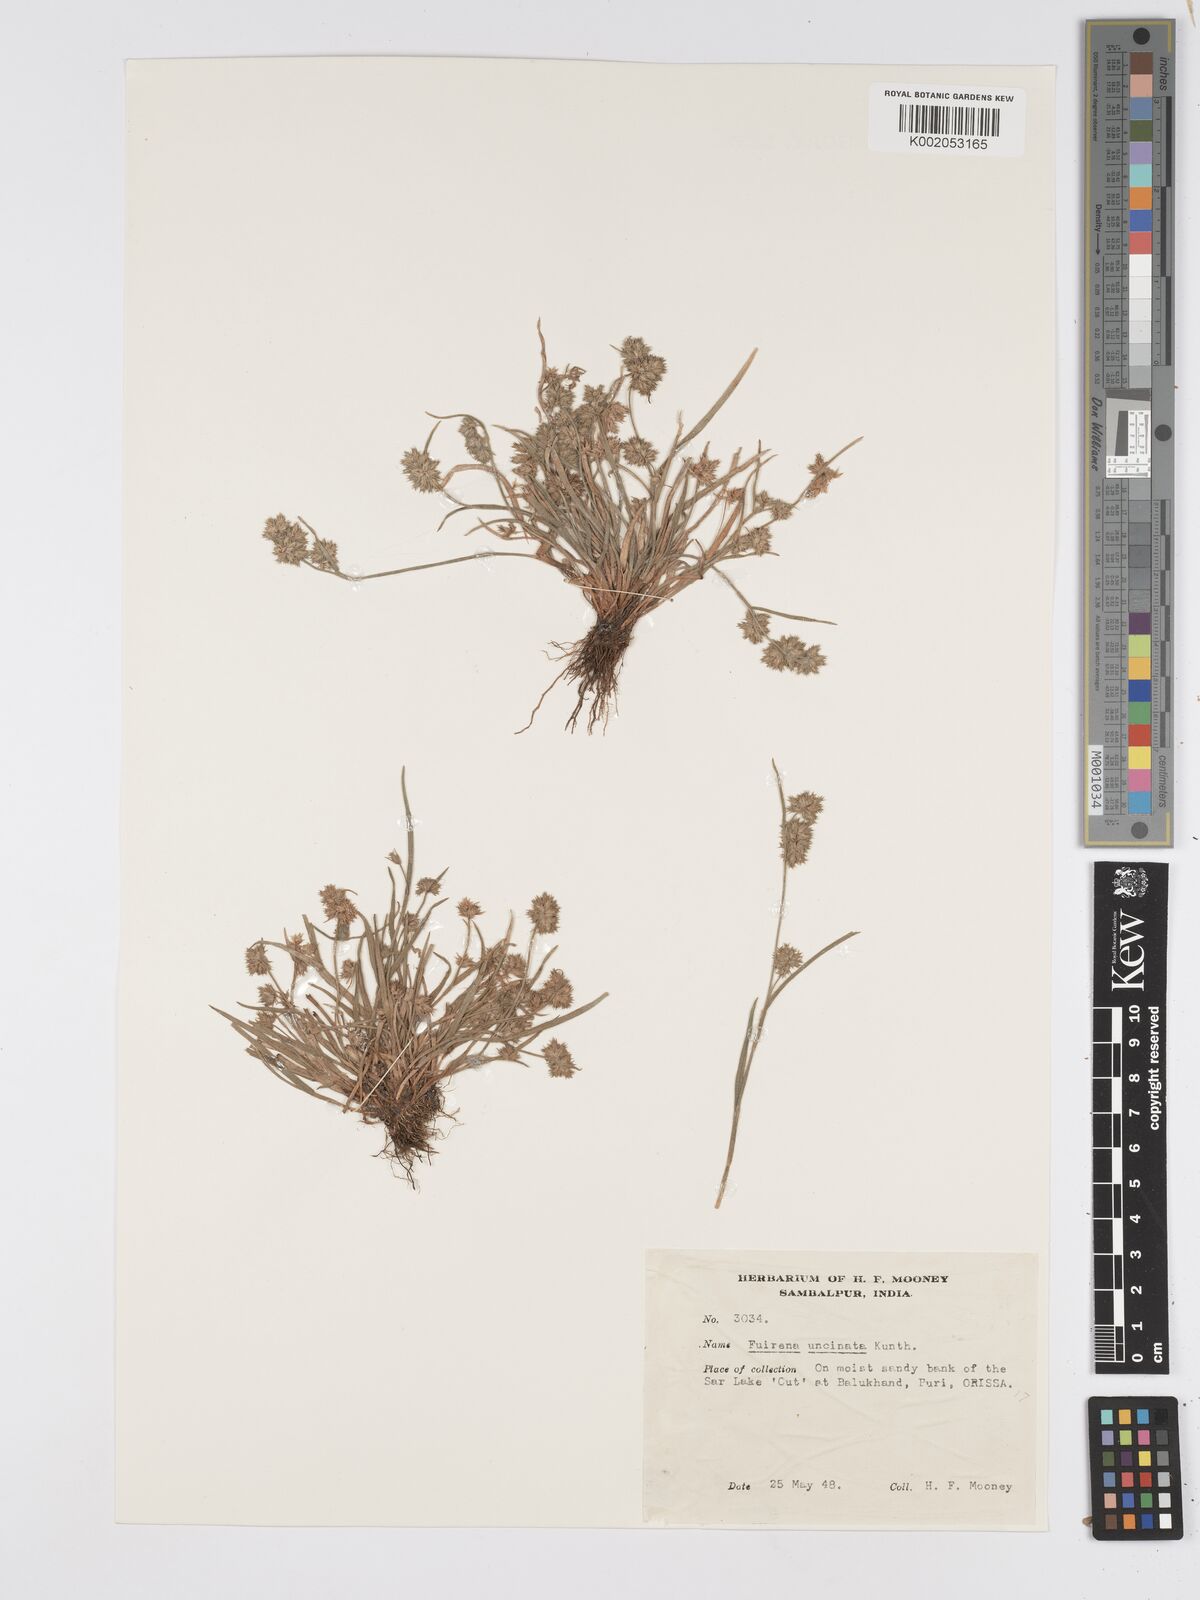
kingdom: Plantae
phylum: Tracheophyta
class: Liliopsida
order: Poales
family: Cyperaceae
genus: Fuirena
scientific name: Fuirena uncinata
